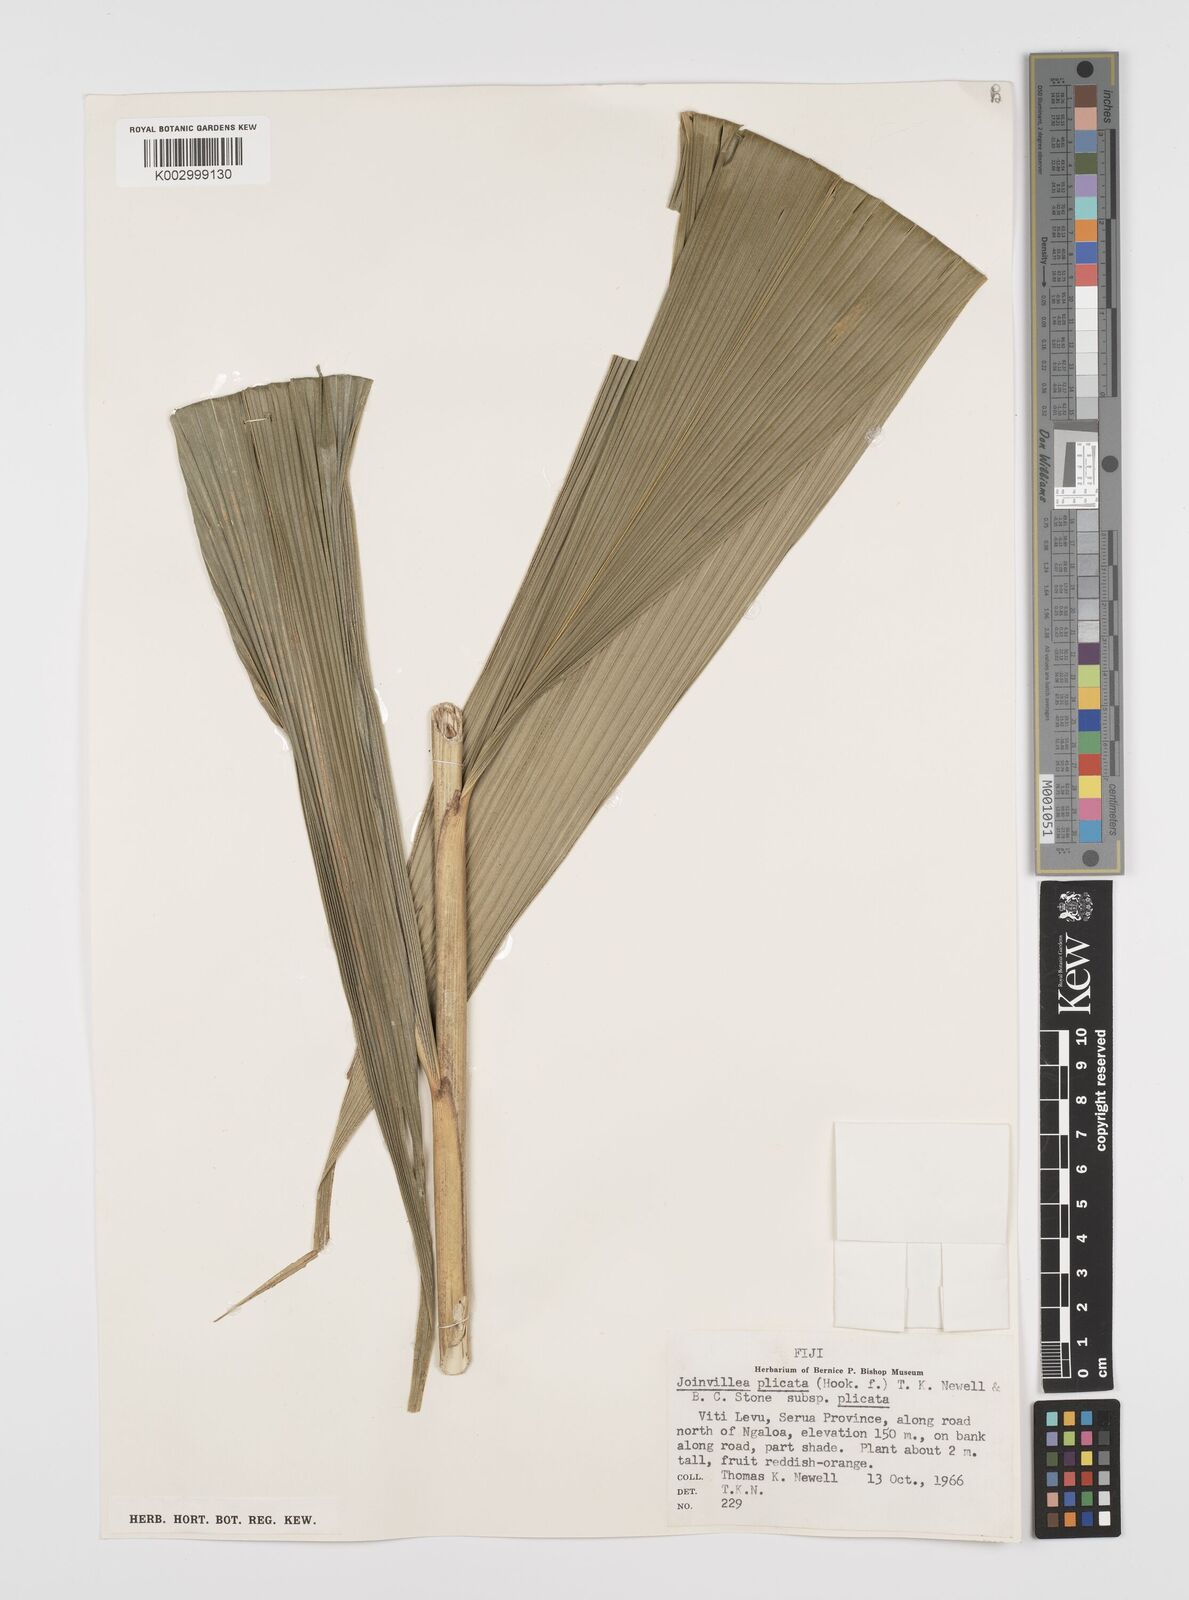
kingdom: Plantae
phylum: Tracheophyta
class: Liliopsida
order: Poales
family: Joinvilleaceae
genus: Joinvillea
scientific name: Joinvillea plicata
